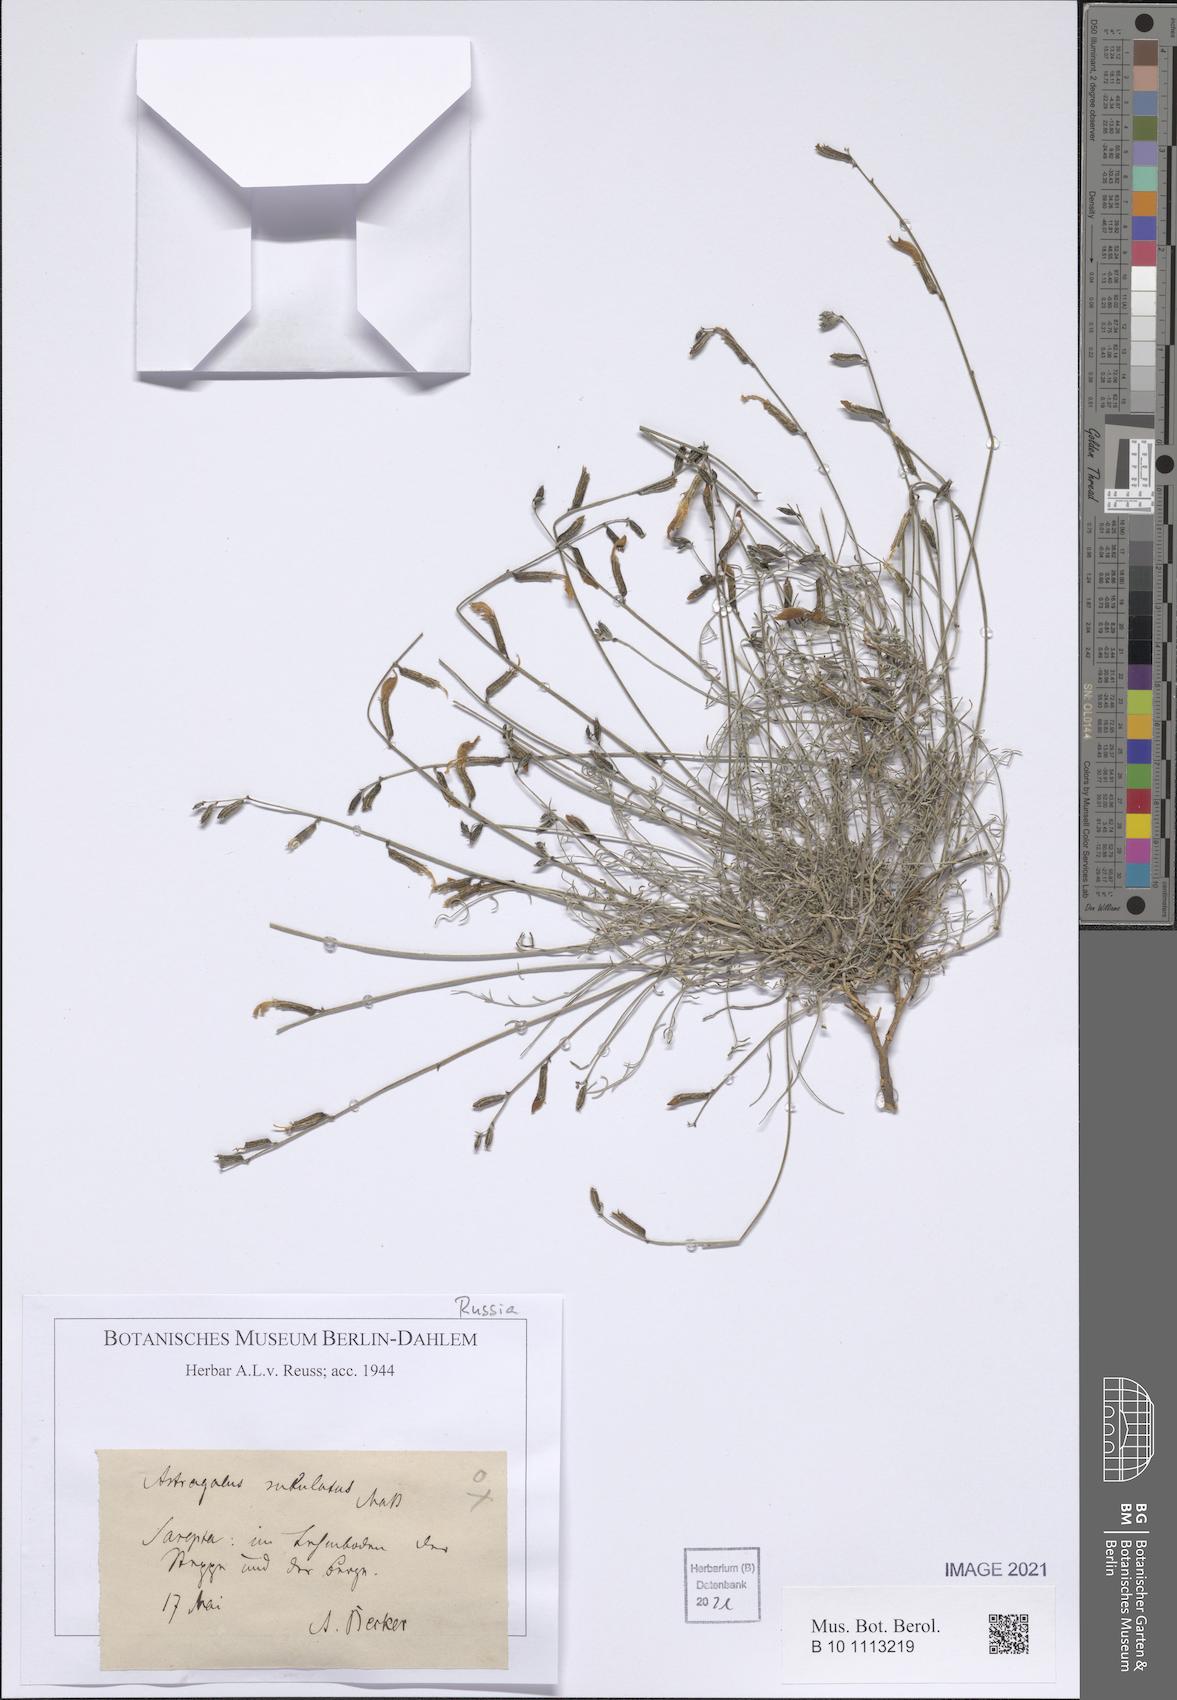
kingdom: Plantae
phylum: Tracheophyta
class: Magnoliopsida
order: Fabales
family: Fabaceae
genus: Astragalus
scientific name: Astragalus subuliformis
